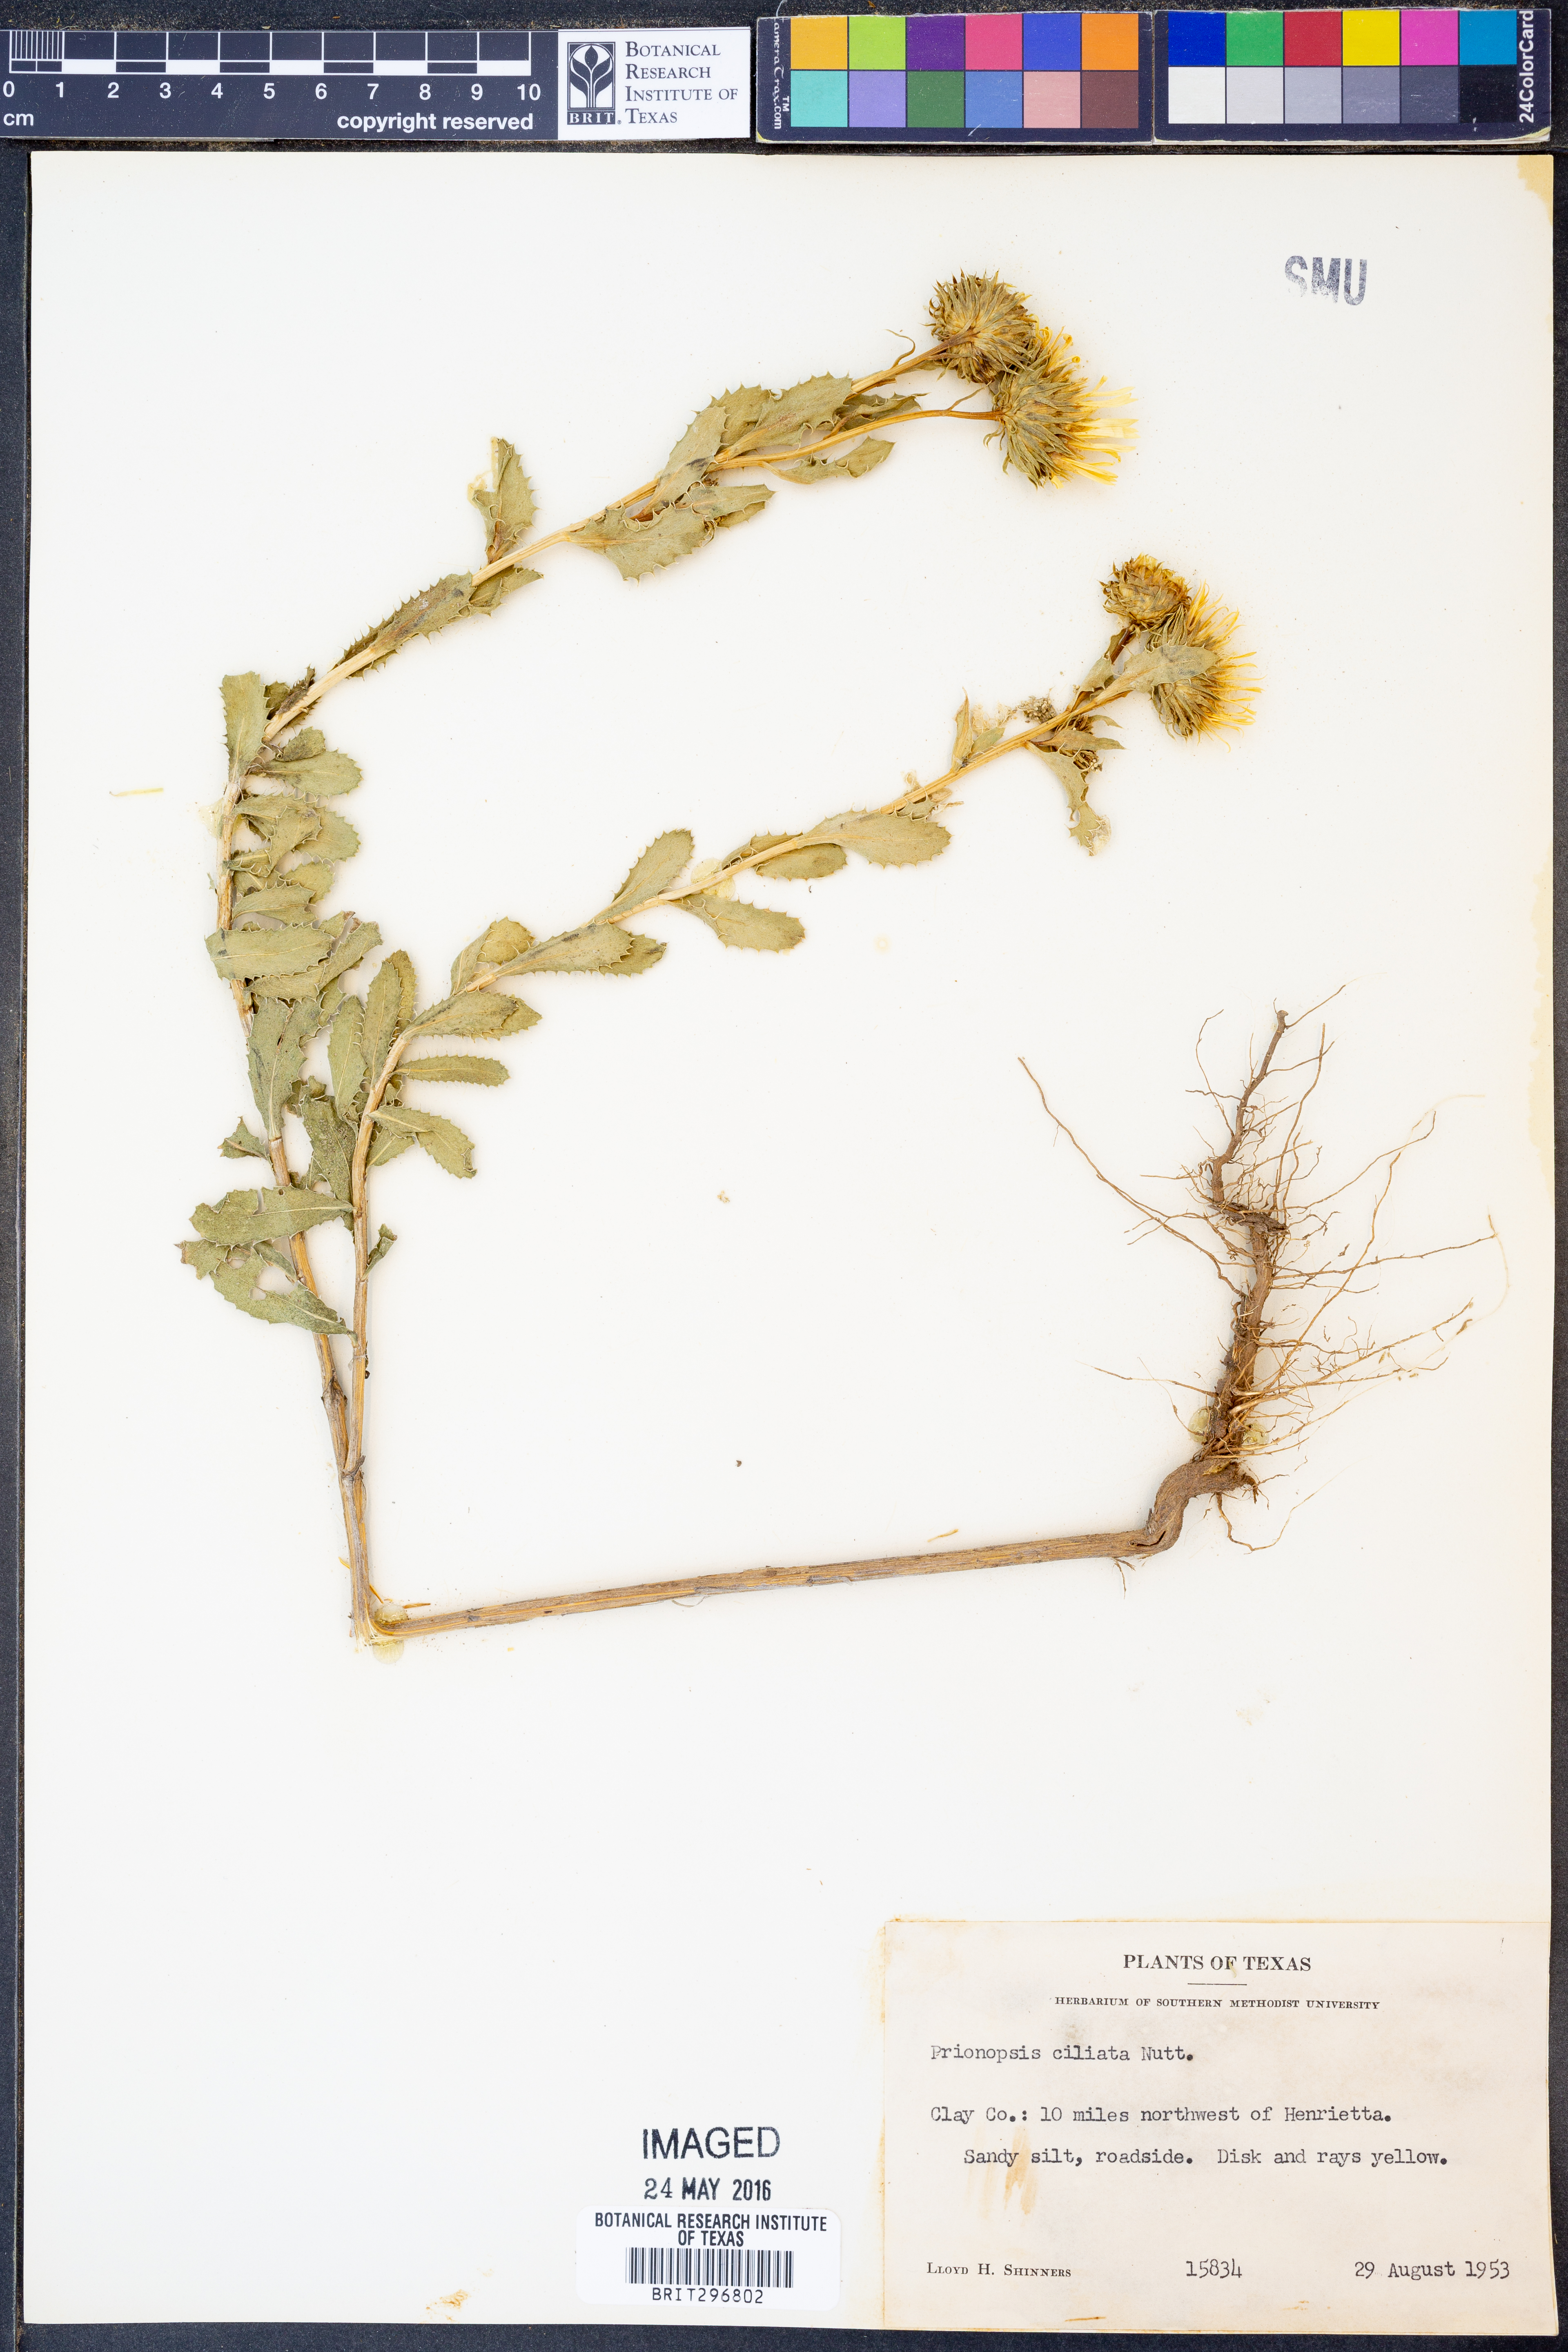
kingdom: Plantae
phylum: Tracheophyta
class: Magnoliopsida
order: Asterales
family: Asteraceae
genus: Grindelia
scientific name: Grindelia ciliata
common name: Goldenweed
